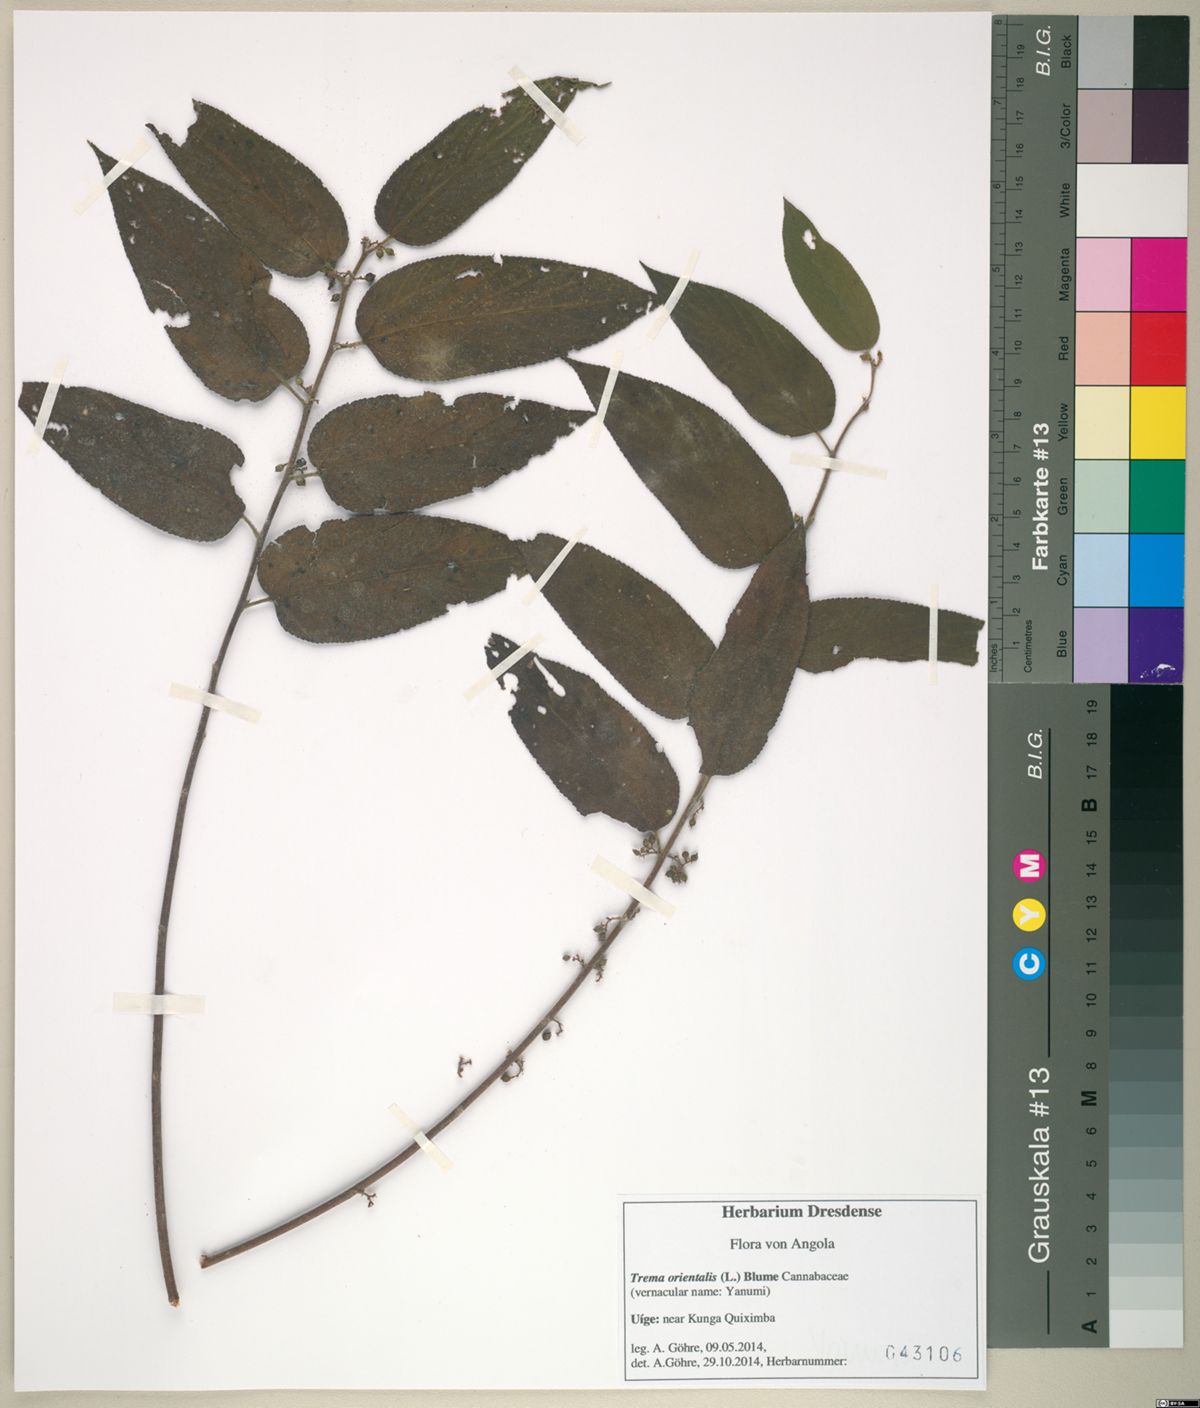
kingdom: Plantae
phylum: Tracheophyta
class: Magnoliopsida
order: Rosales
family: Cannabaceae
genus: Trema
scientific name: Trema orientale
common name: Indian charcoal tree
